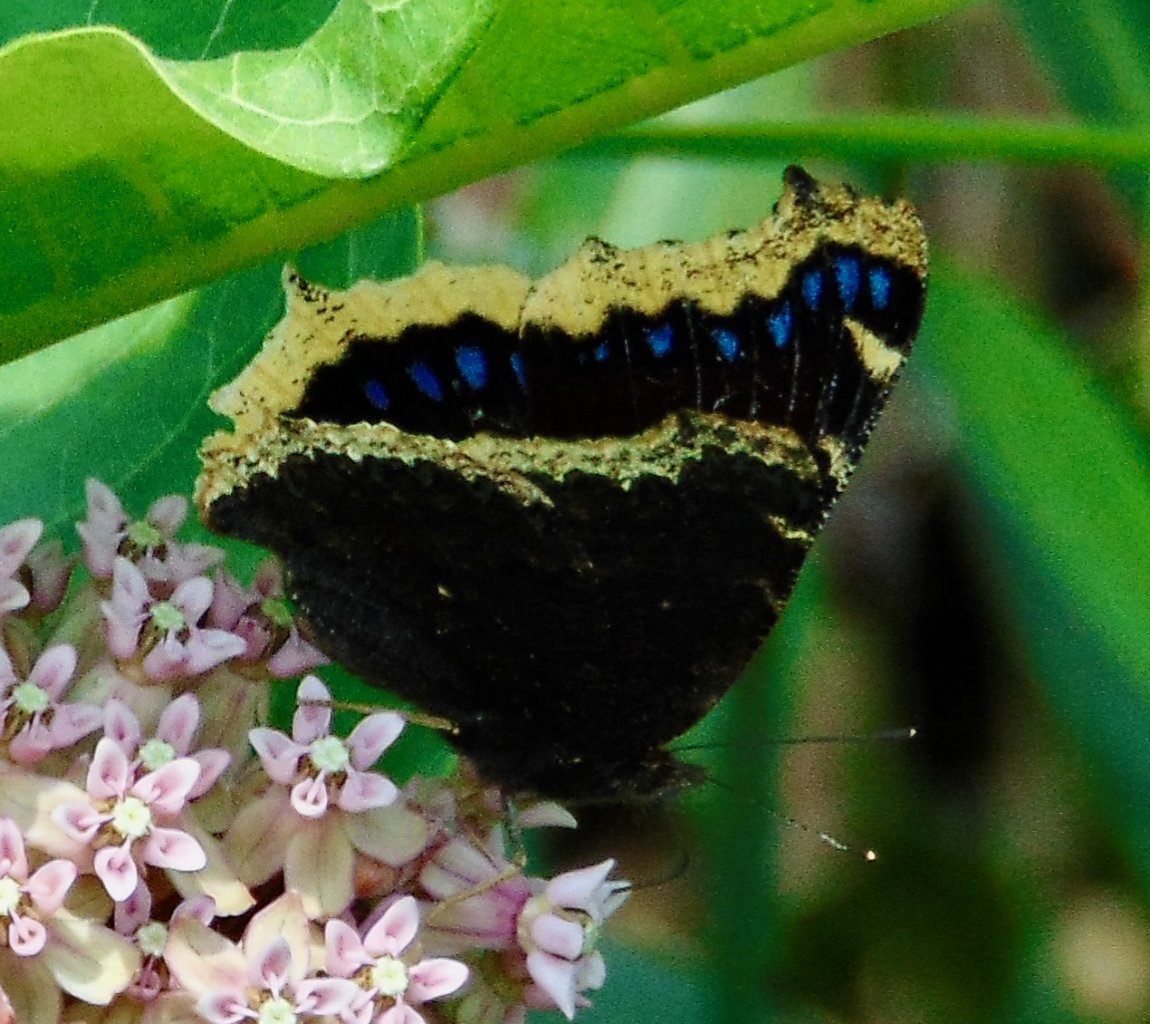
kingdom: Animalia
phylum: Arthropoda
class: Insecta
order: Lepidoptera
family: Nymphalidae
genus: Nymphalis
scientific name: Nymphalis antiopa
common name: Mourning Cloak
